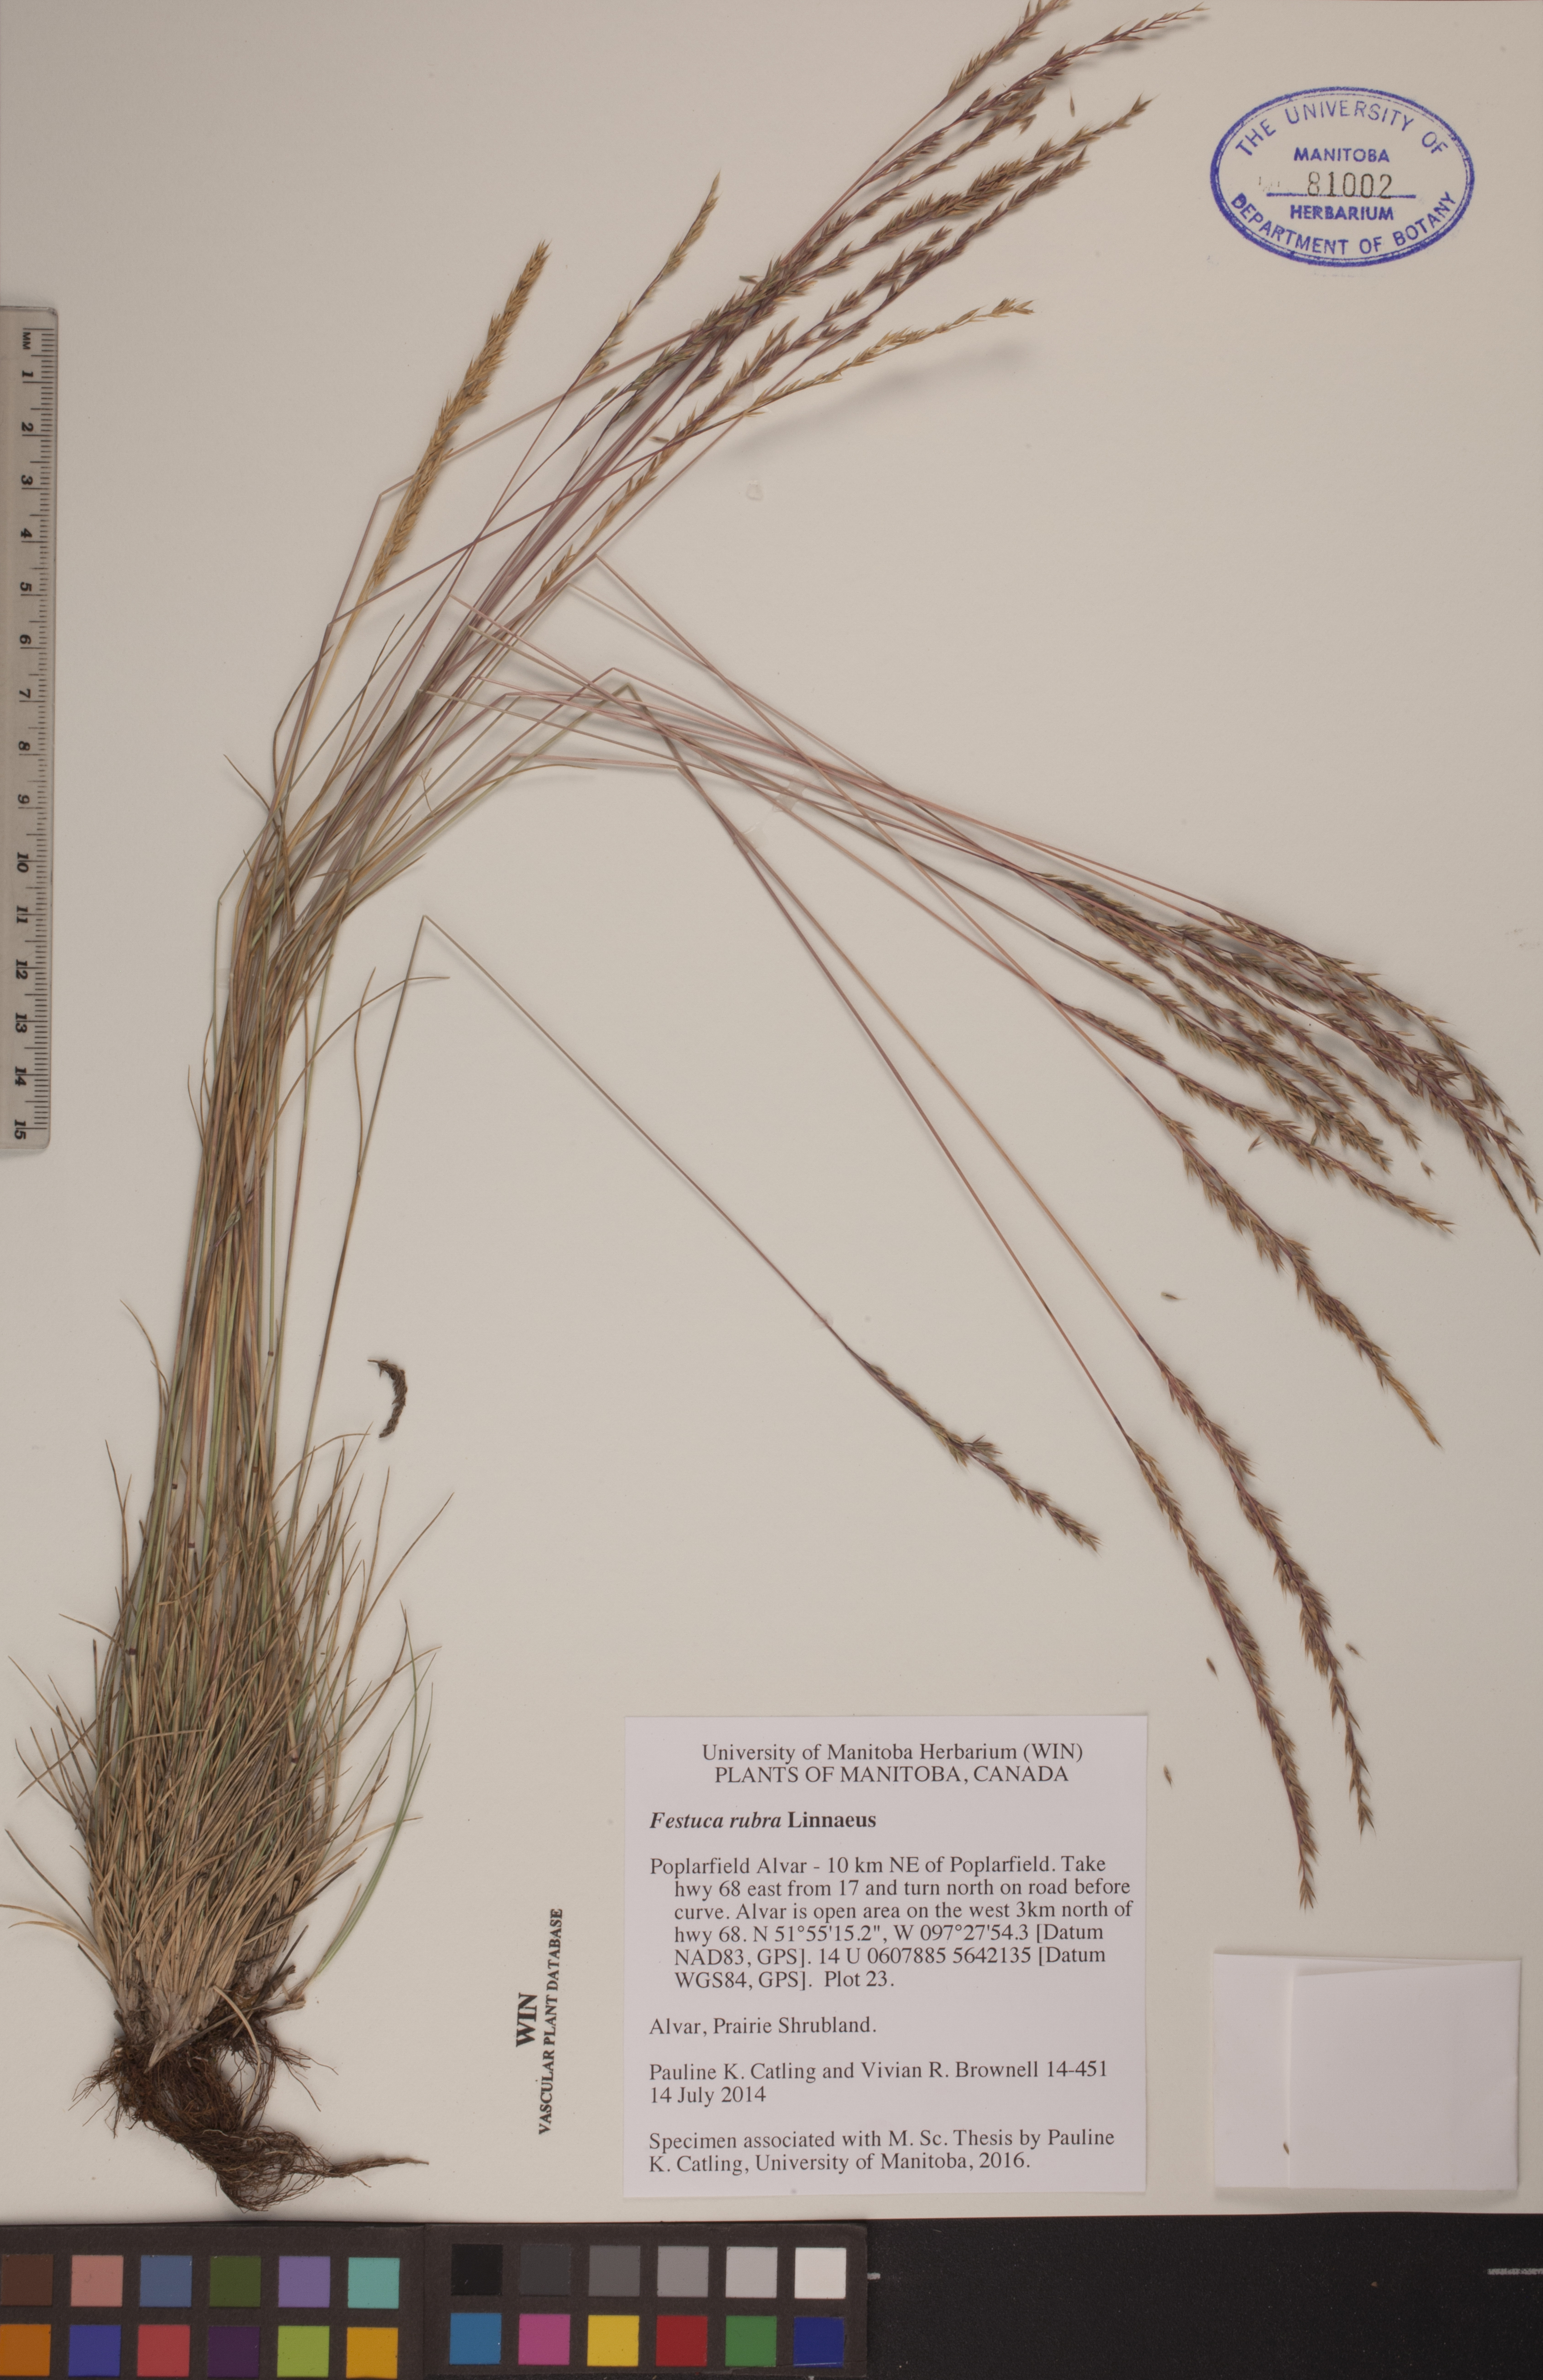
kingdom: Plantae
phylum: Tracheophyta
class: Liliopsida
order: Poales
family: Poaceae
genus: Festuca
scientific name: Festuca rubra
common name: Red fescue
